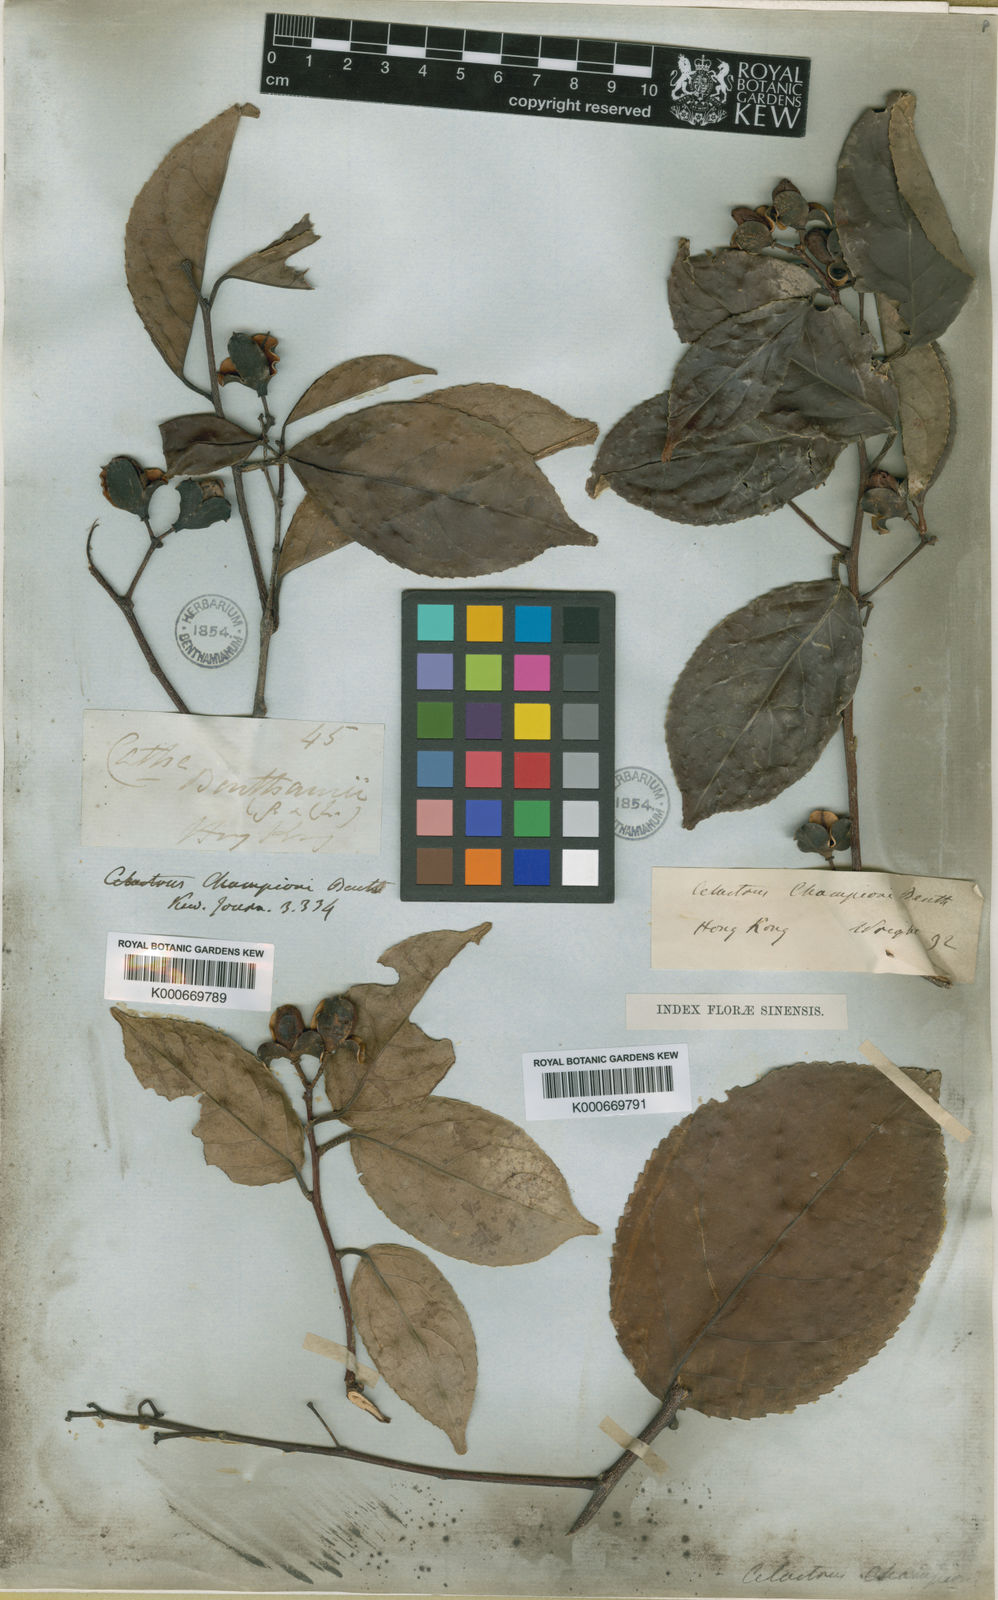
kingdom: Plantae
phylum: Tracheophyta
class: Magnoliopsida
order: Celastrales
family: Celastraceae
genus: Celastrus
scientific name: Celastrus monospermus
